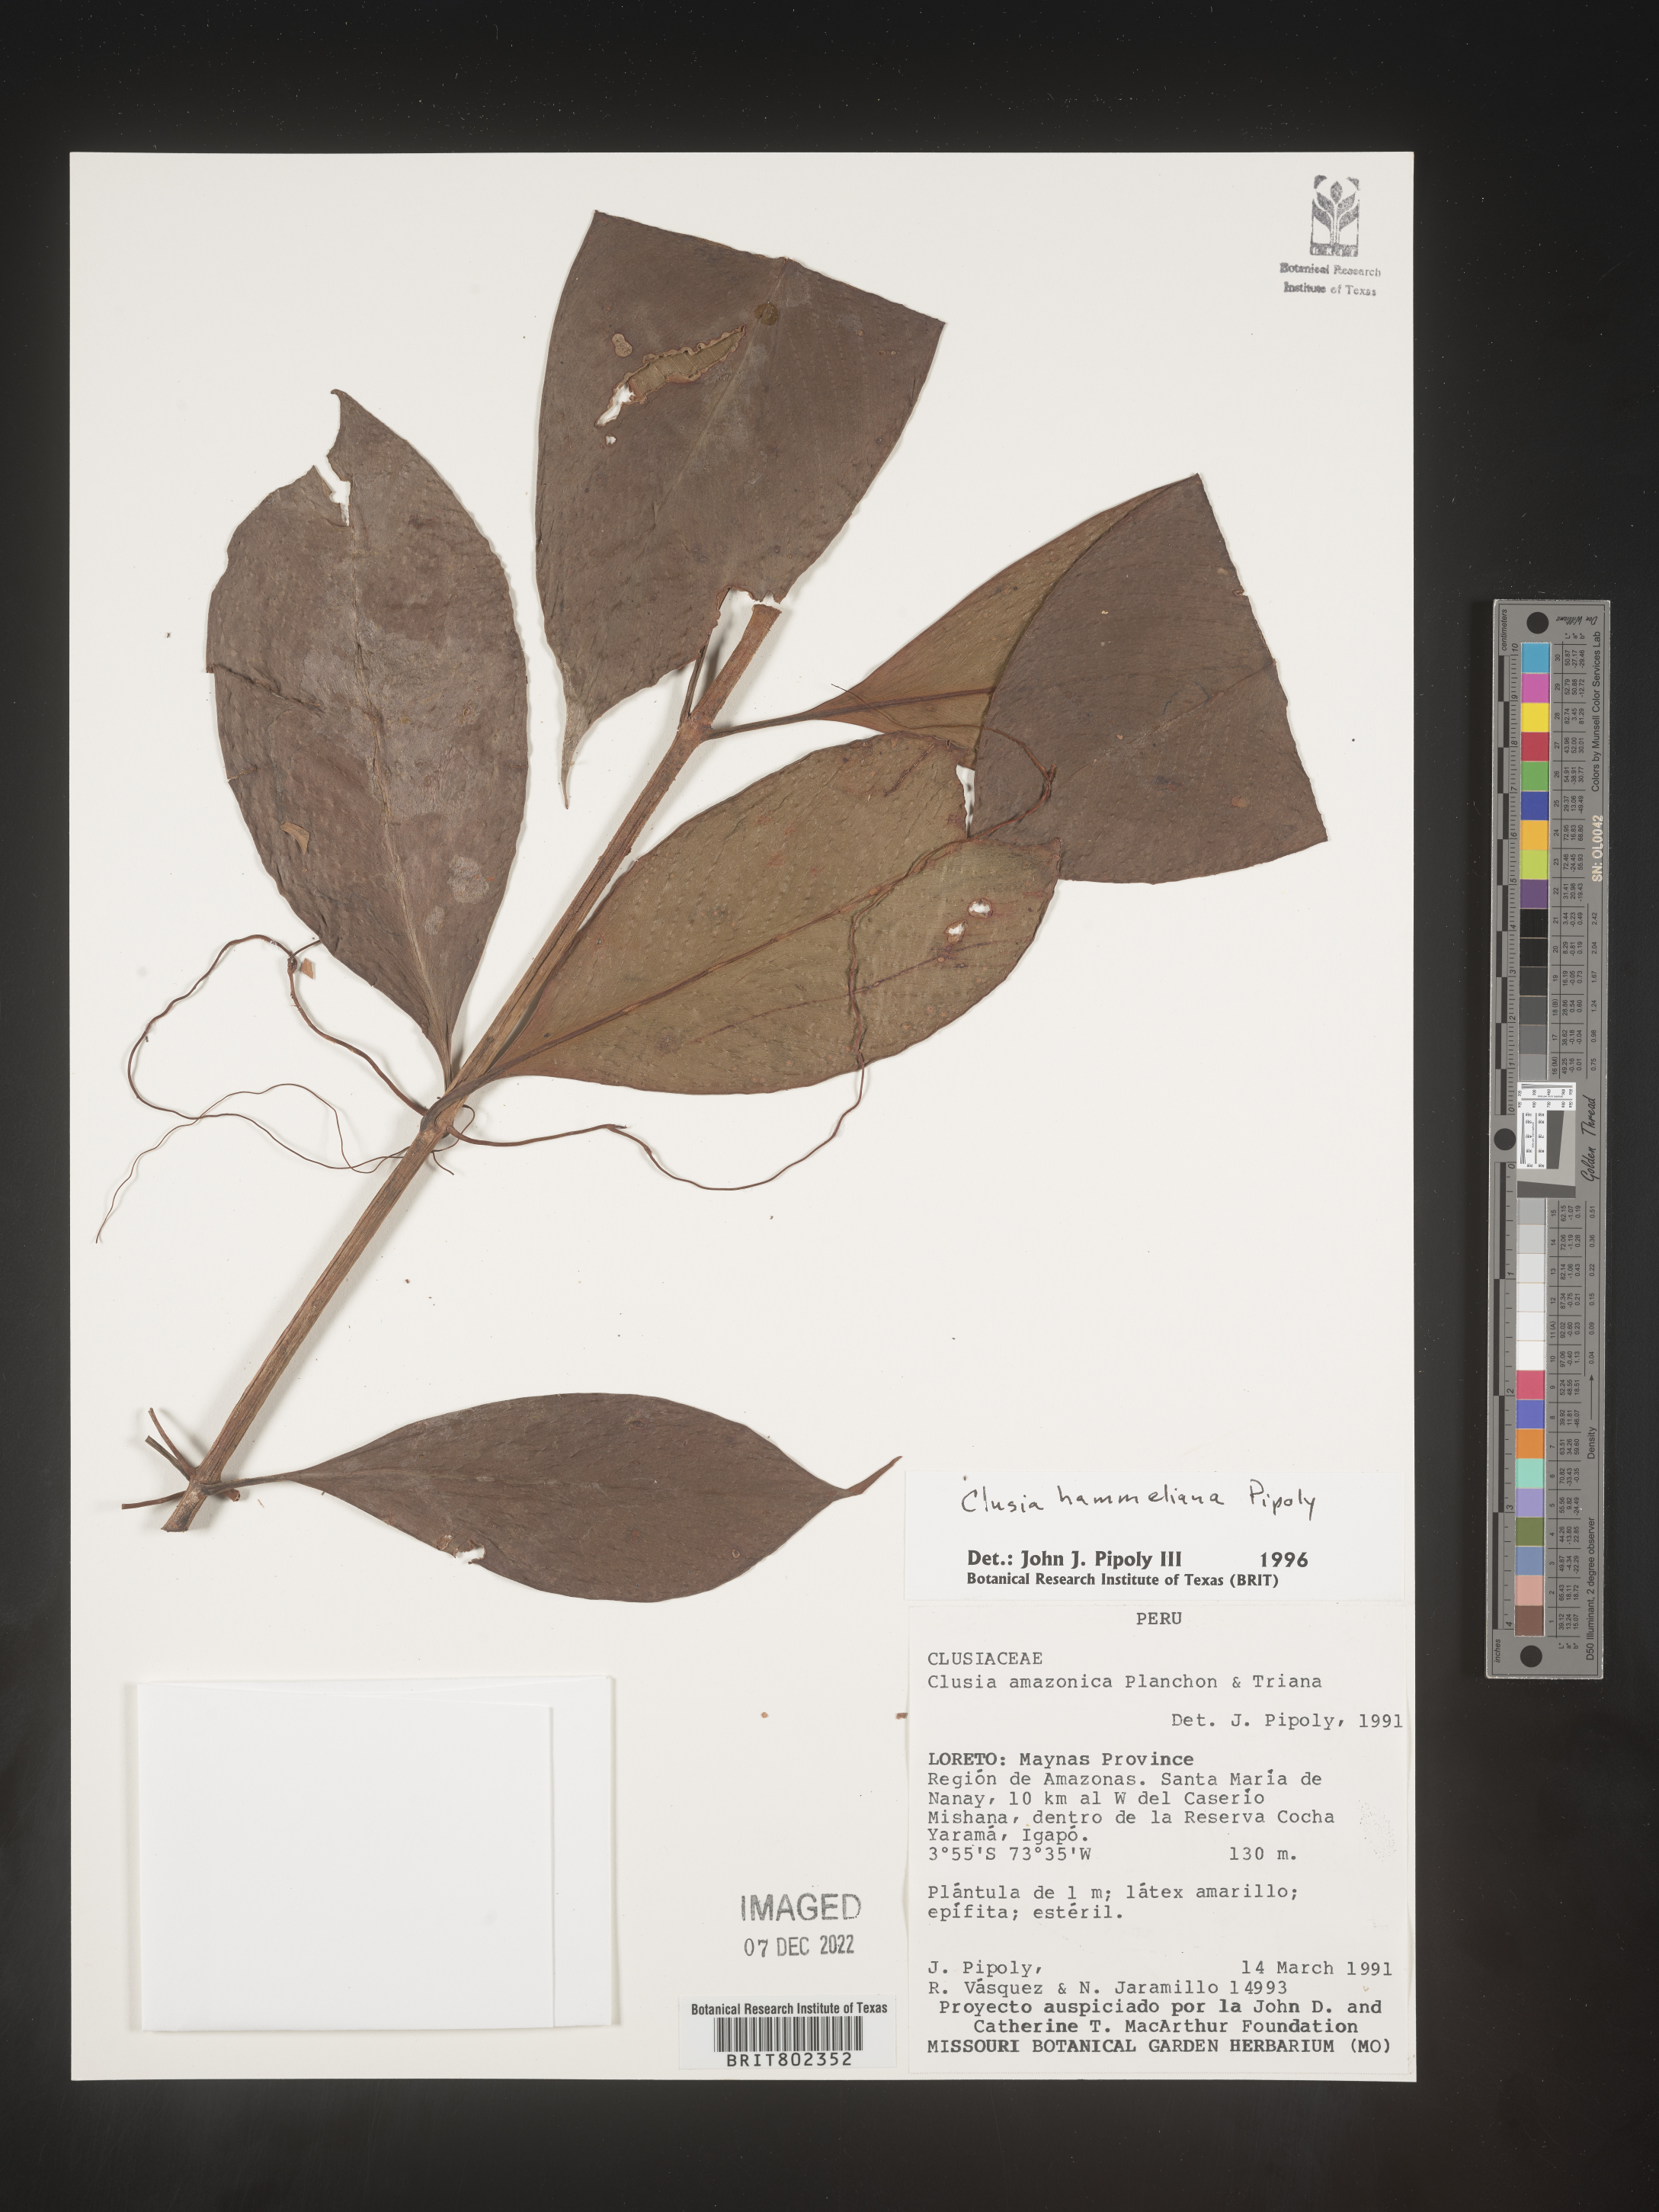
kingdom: Plantae
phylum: Tracheophyta
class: Magnoliopsida
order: Malpighiales
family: Clusiaceae
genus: Clusia
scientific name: Clusia hammeliana
